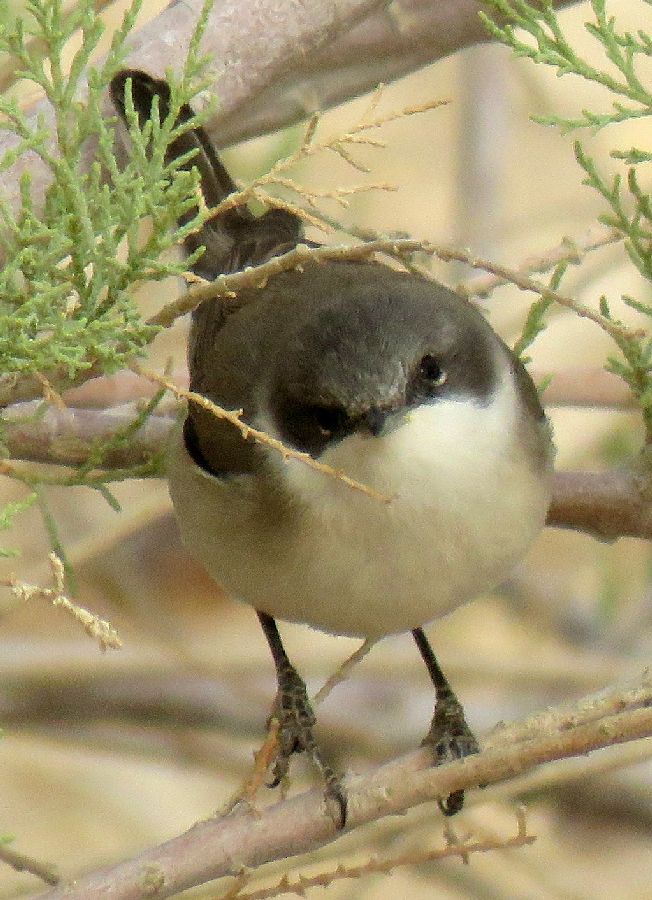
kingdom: Animalia
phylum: Chordata
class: Aves
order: Passeriformes
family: Sylviidae
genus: Sylvia
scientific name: Sylvia curruca
